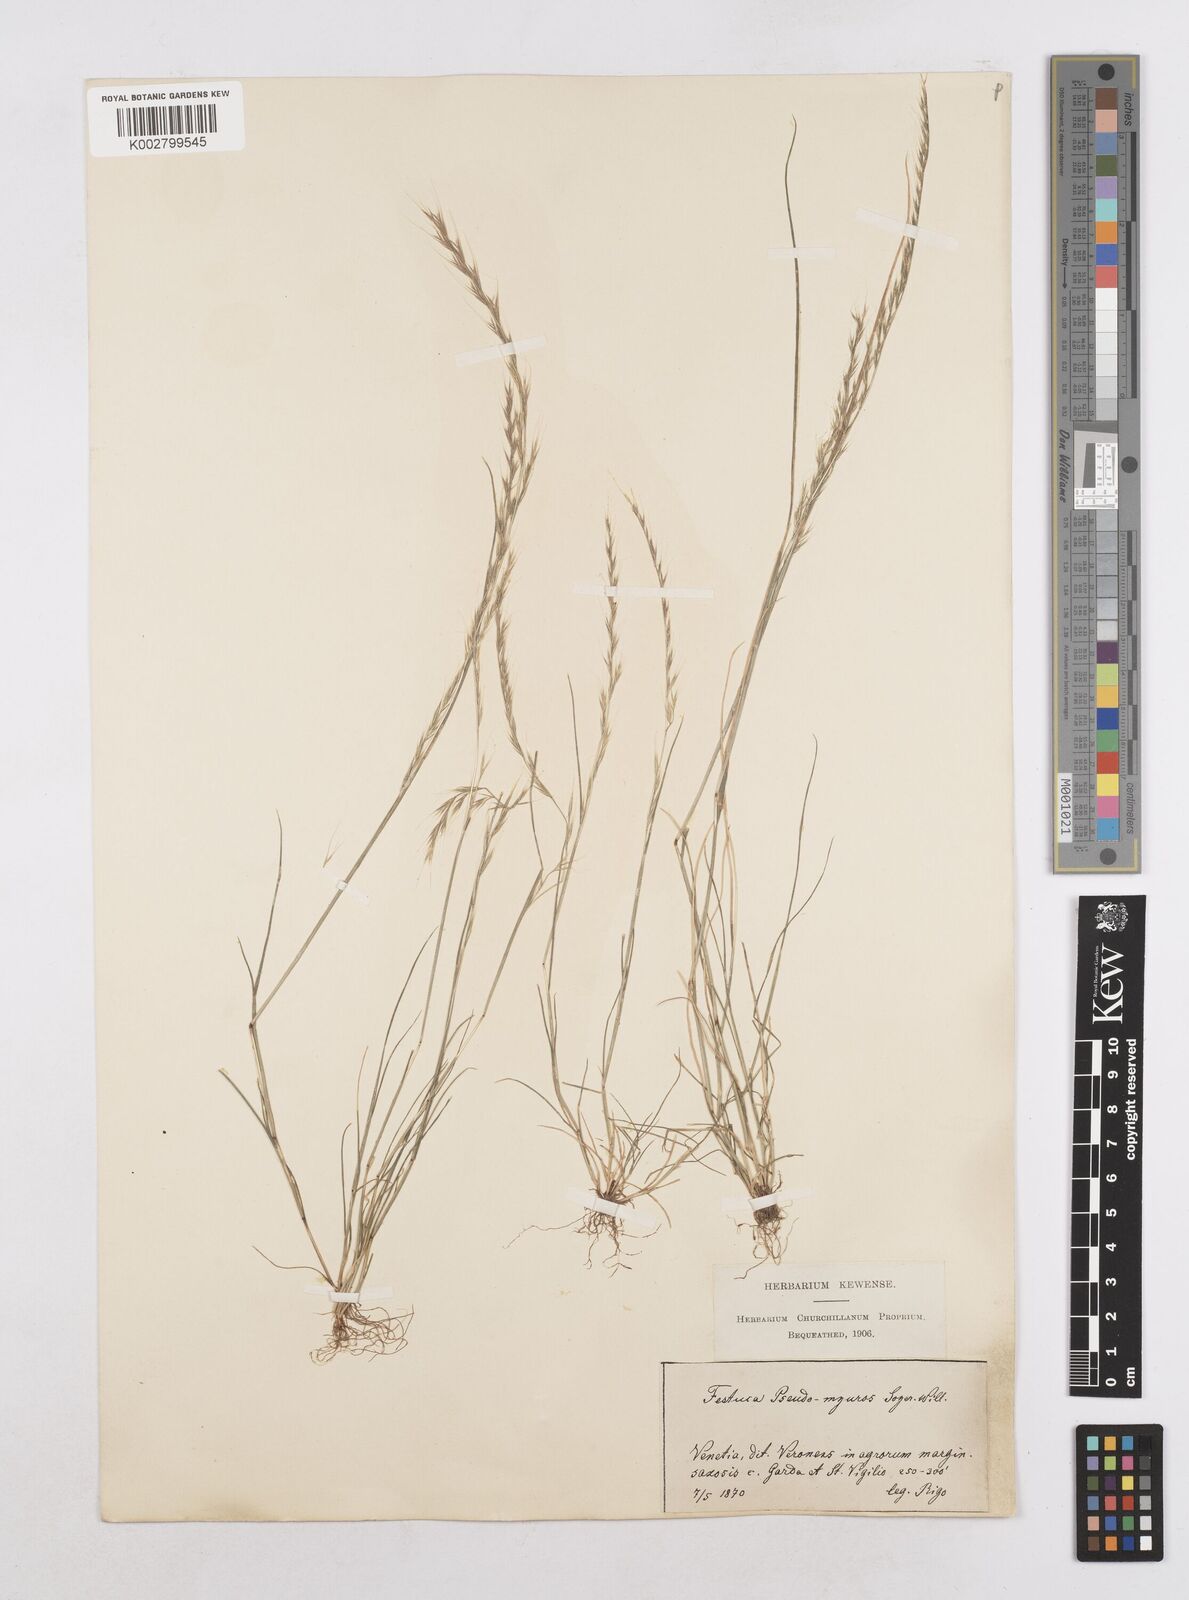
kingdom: Plantae
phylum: Tracheophyta
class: Liliopsida
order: Poales
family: Poaceae
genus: Festuca
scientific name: Festuca myuros
